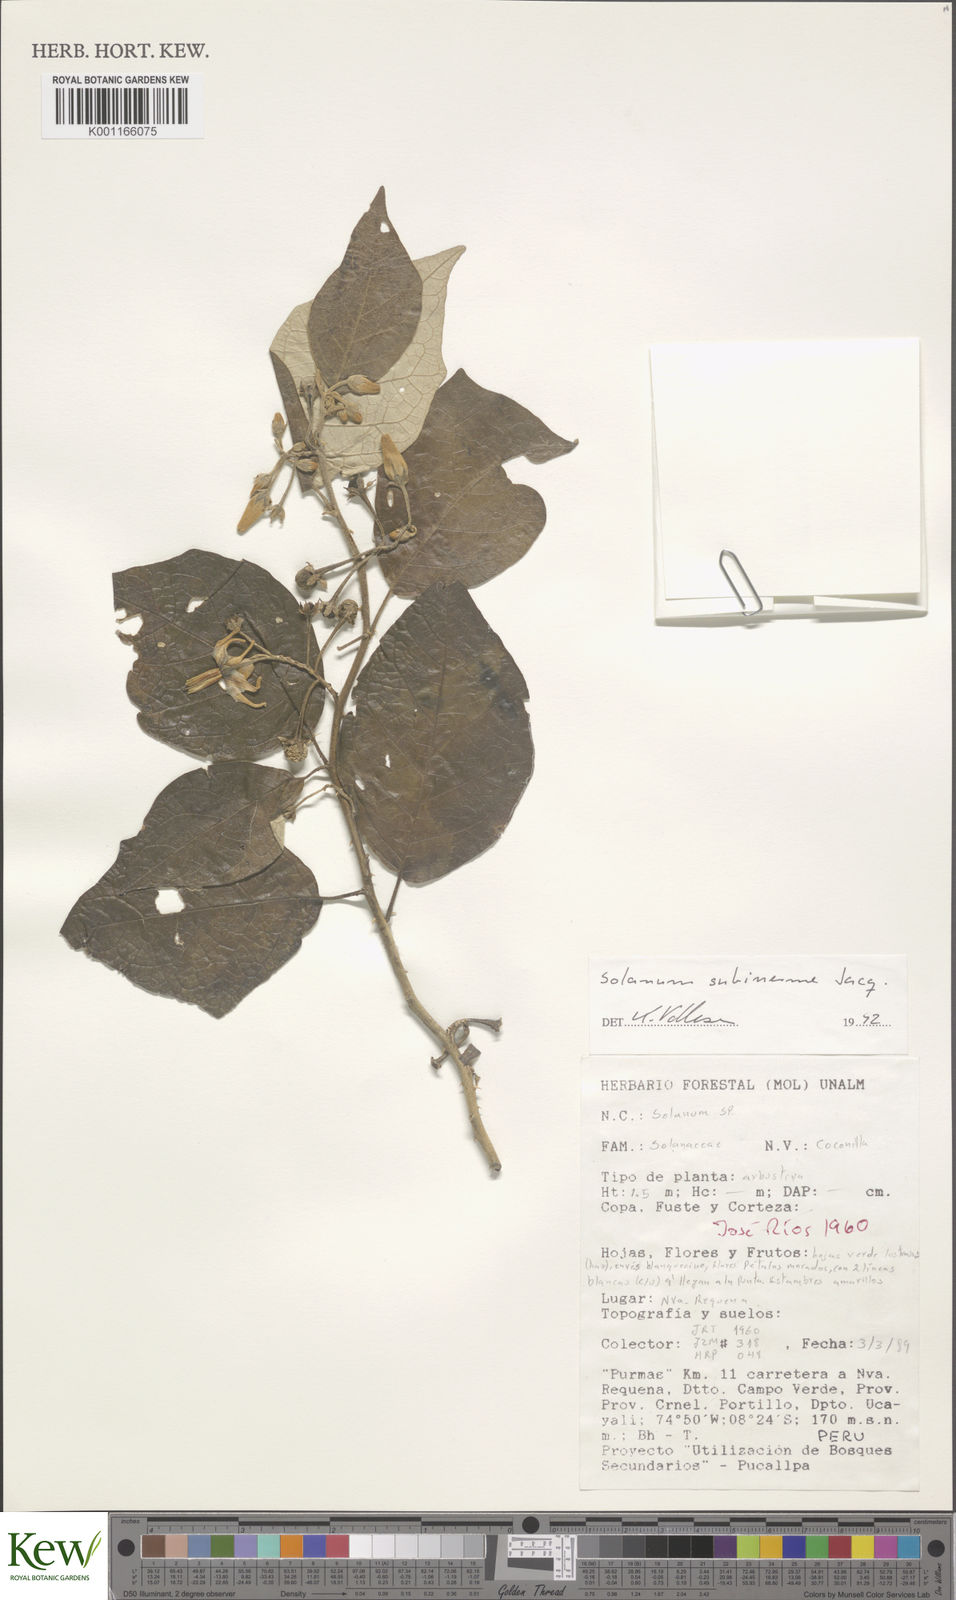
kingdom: Plantae
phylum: Tracheophyta
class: Magnoliopsida
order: Solanales
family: Solanaceae
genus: Solanum
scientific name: Solanum subinerme
